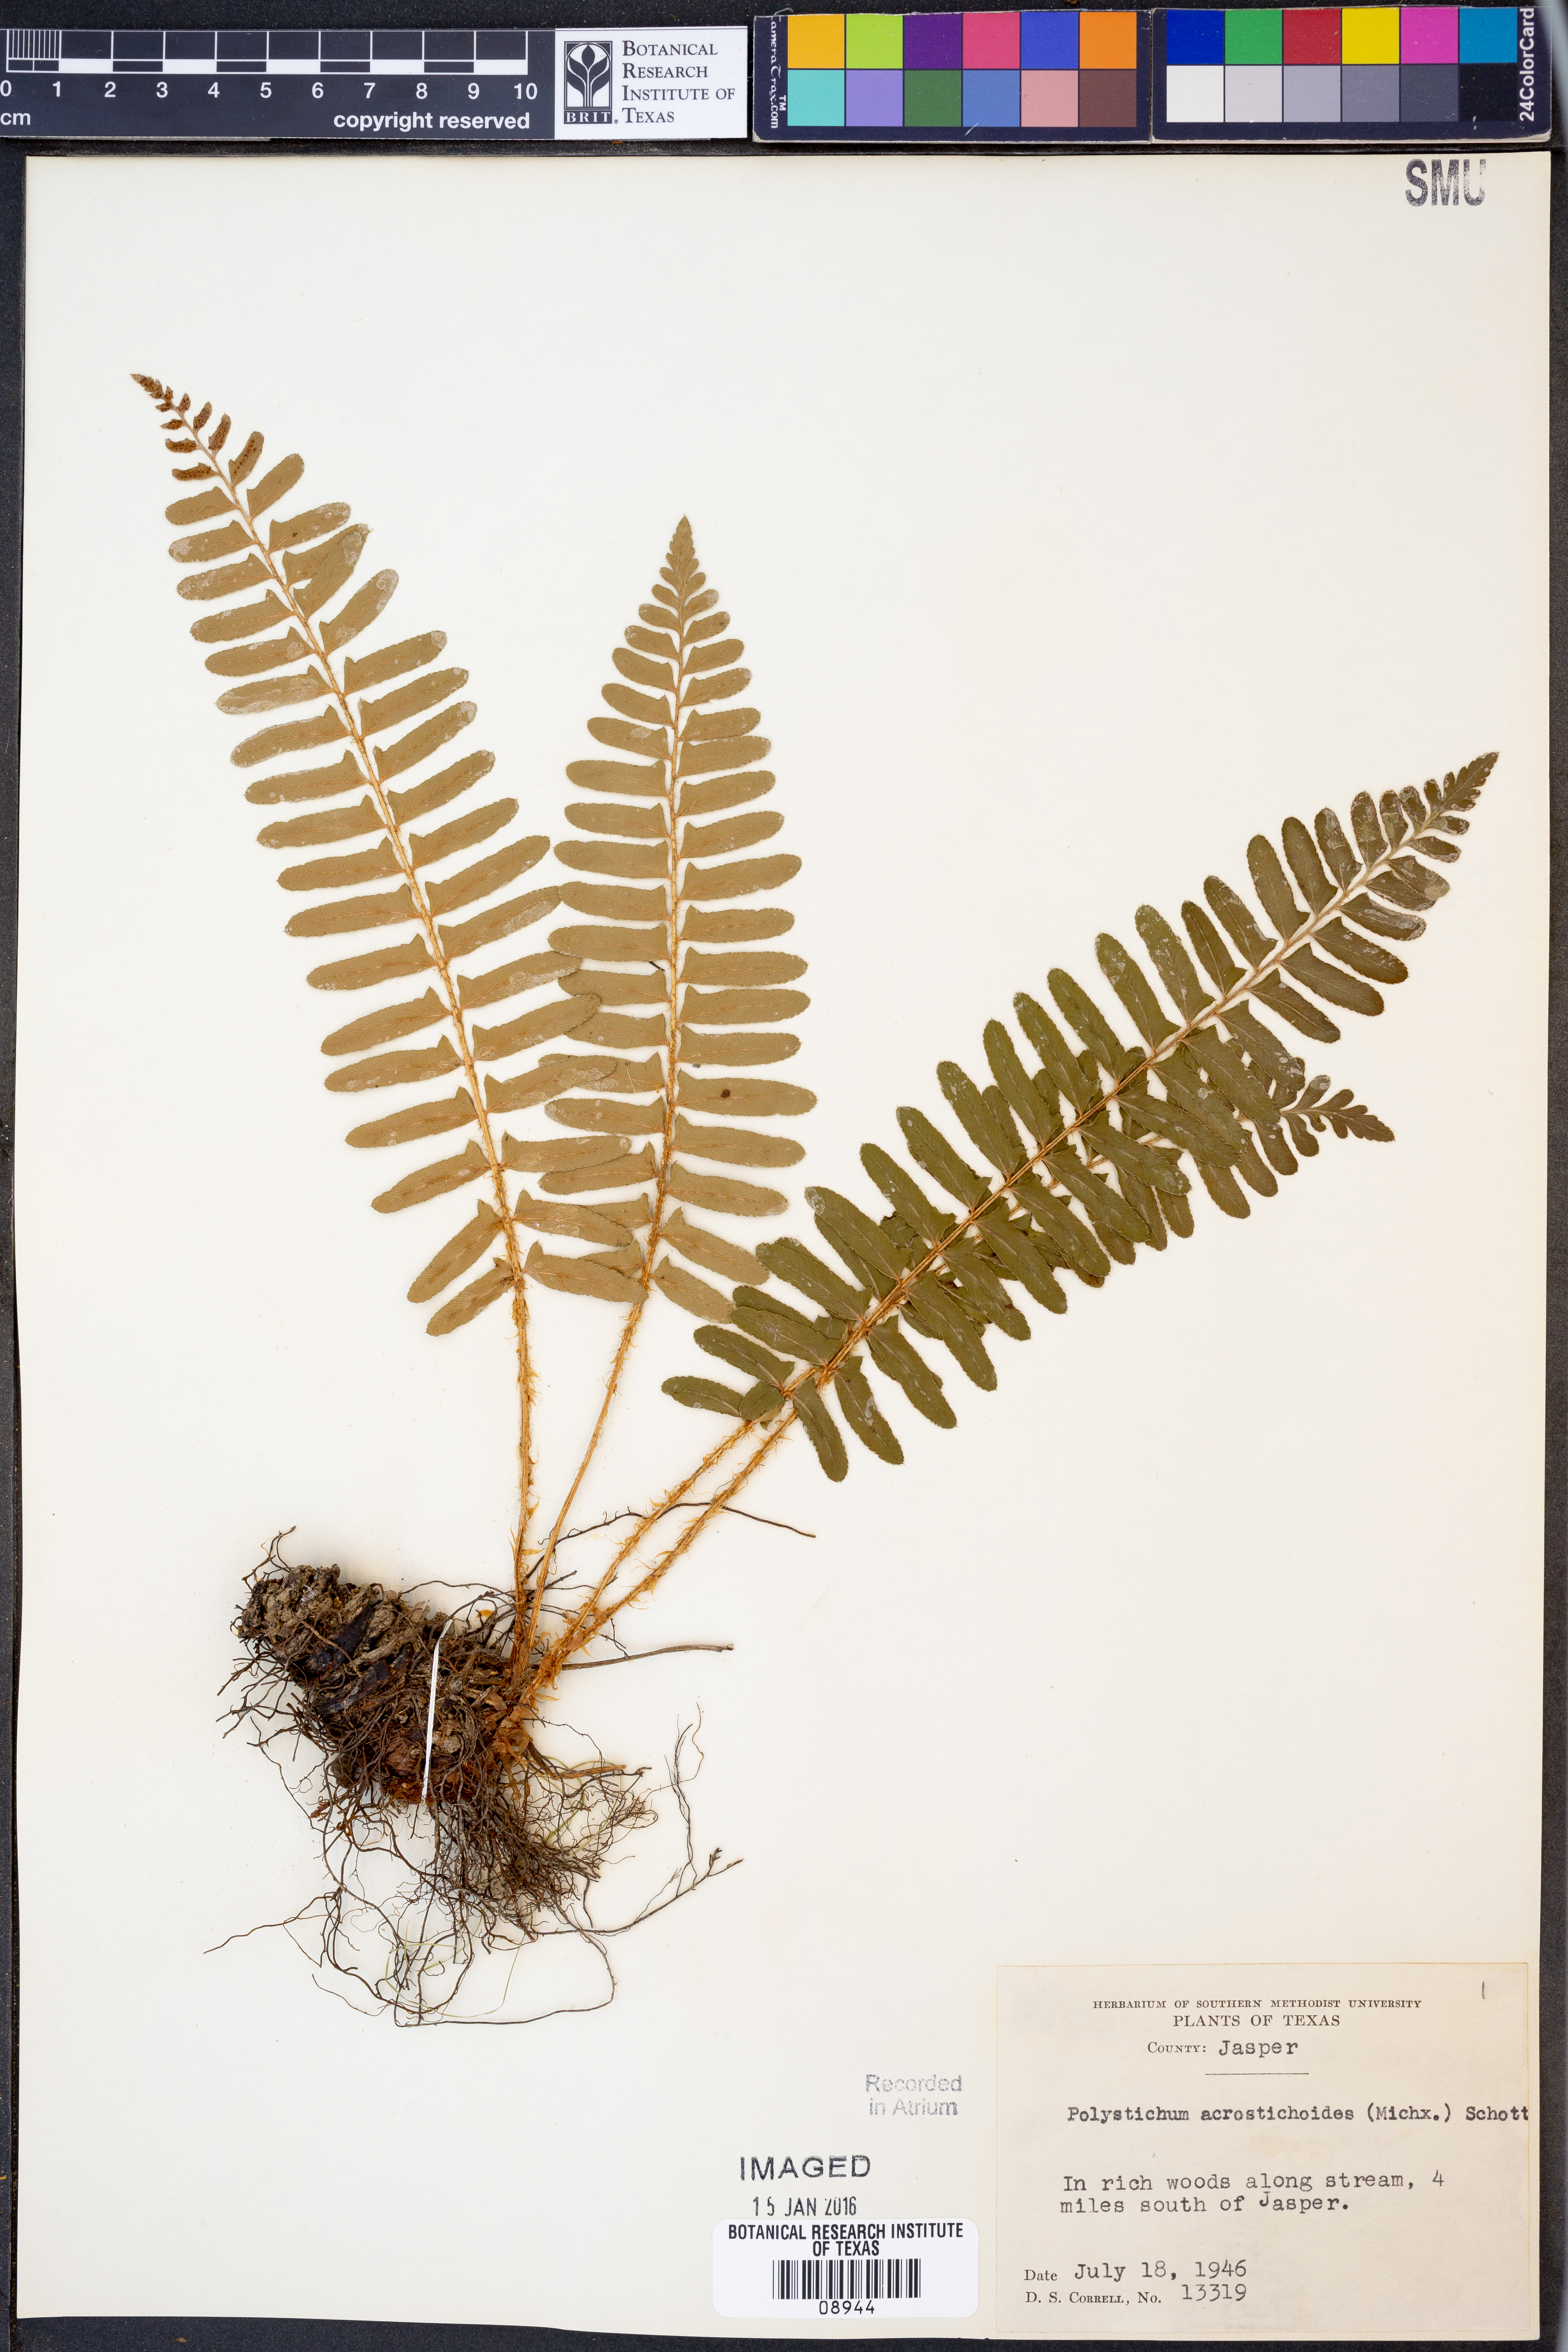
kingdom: Plantae
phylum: Tracheophyta
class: Polypodiopsida
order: Polypodiales
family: Dryopteridaceae
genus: Polystichum
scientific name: Polystichum acrostichoides
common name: Christmas fern
